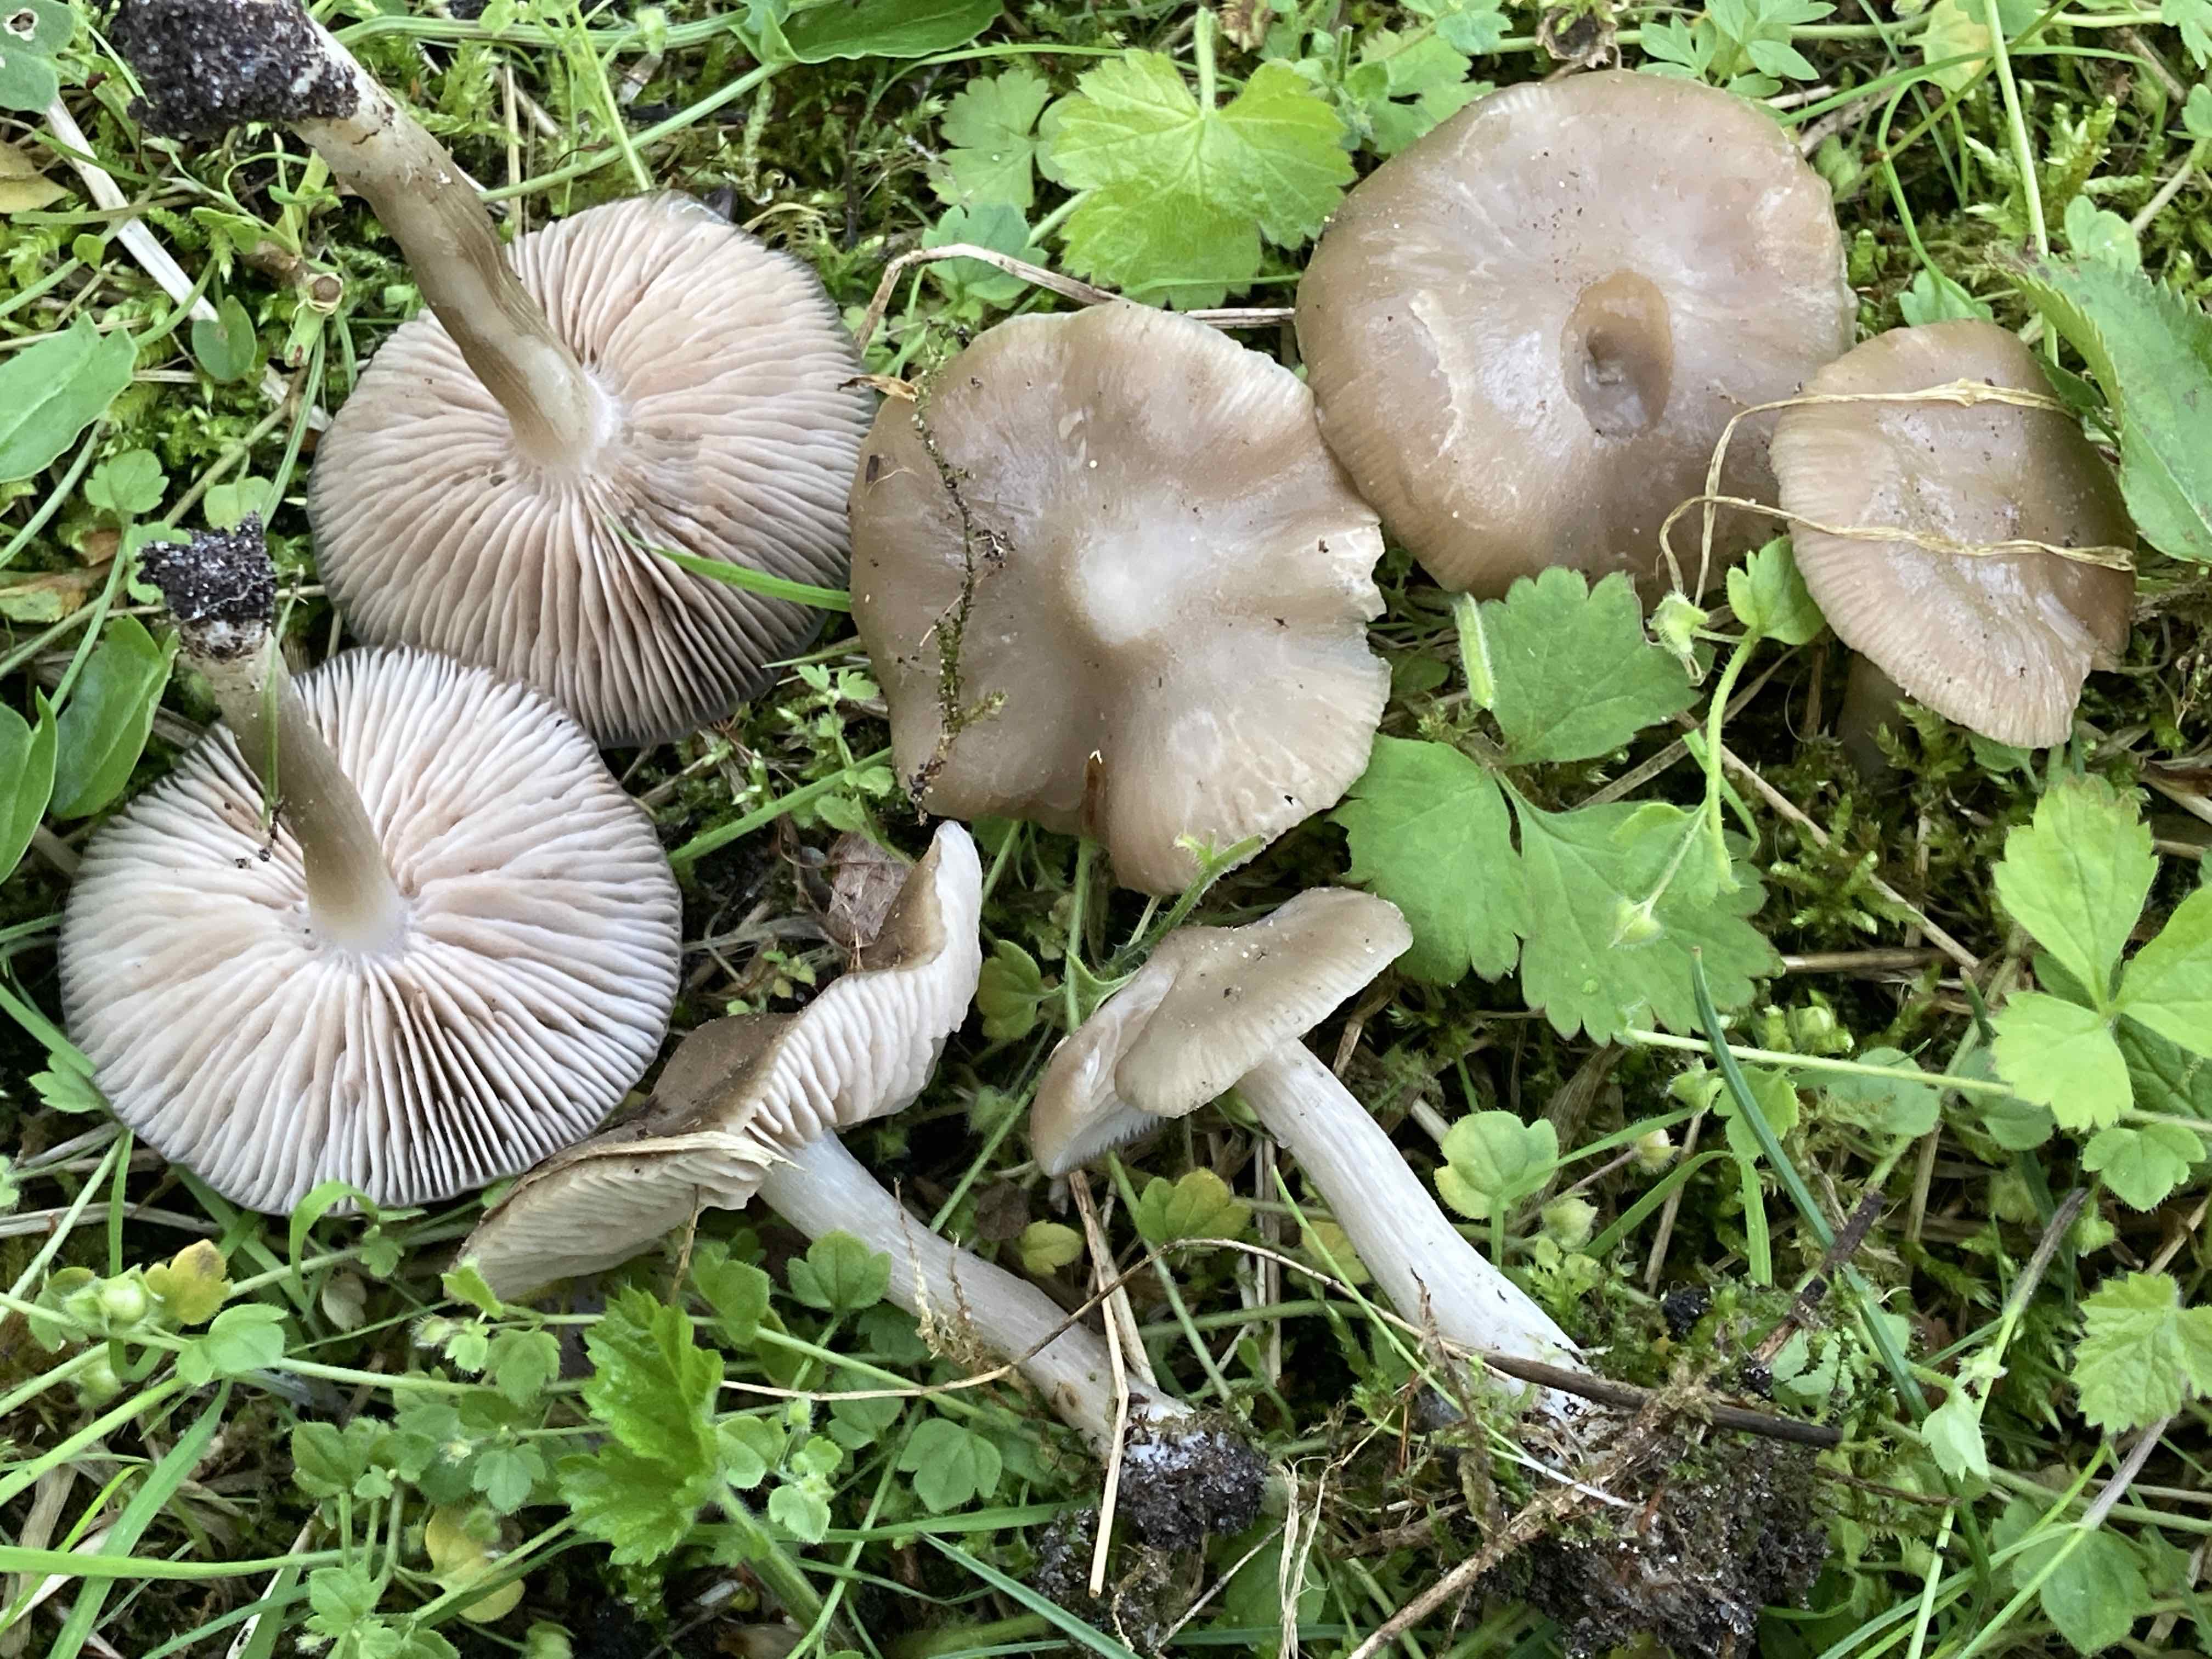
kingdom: Fungi
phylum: Basidiomycota
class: Agaricomycetes
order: Agaricales
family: Entolomataceae
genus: Entoloma
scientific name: Entoloma clypeatum
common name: flammet rødblad
